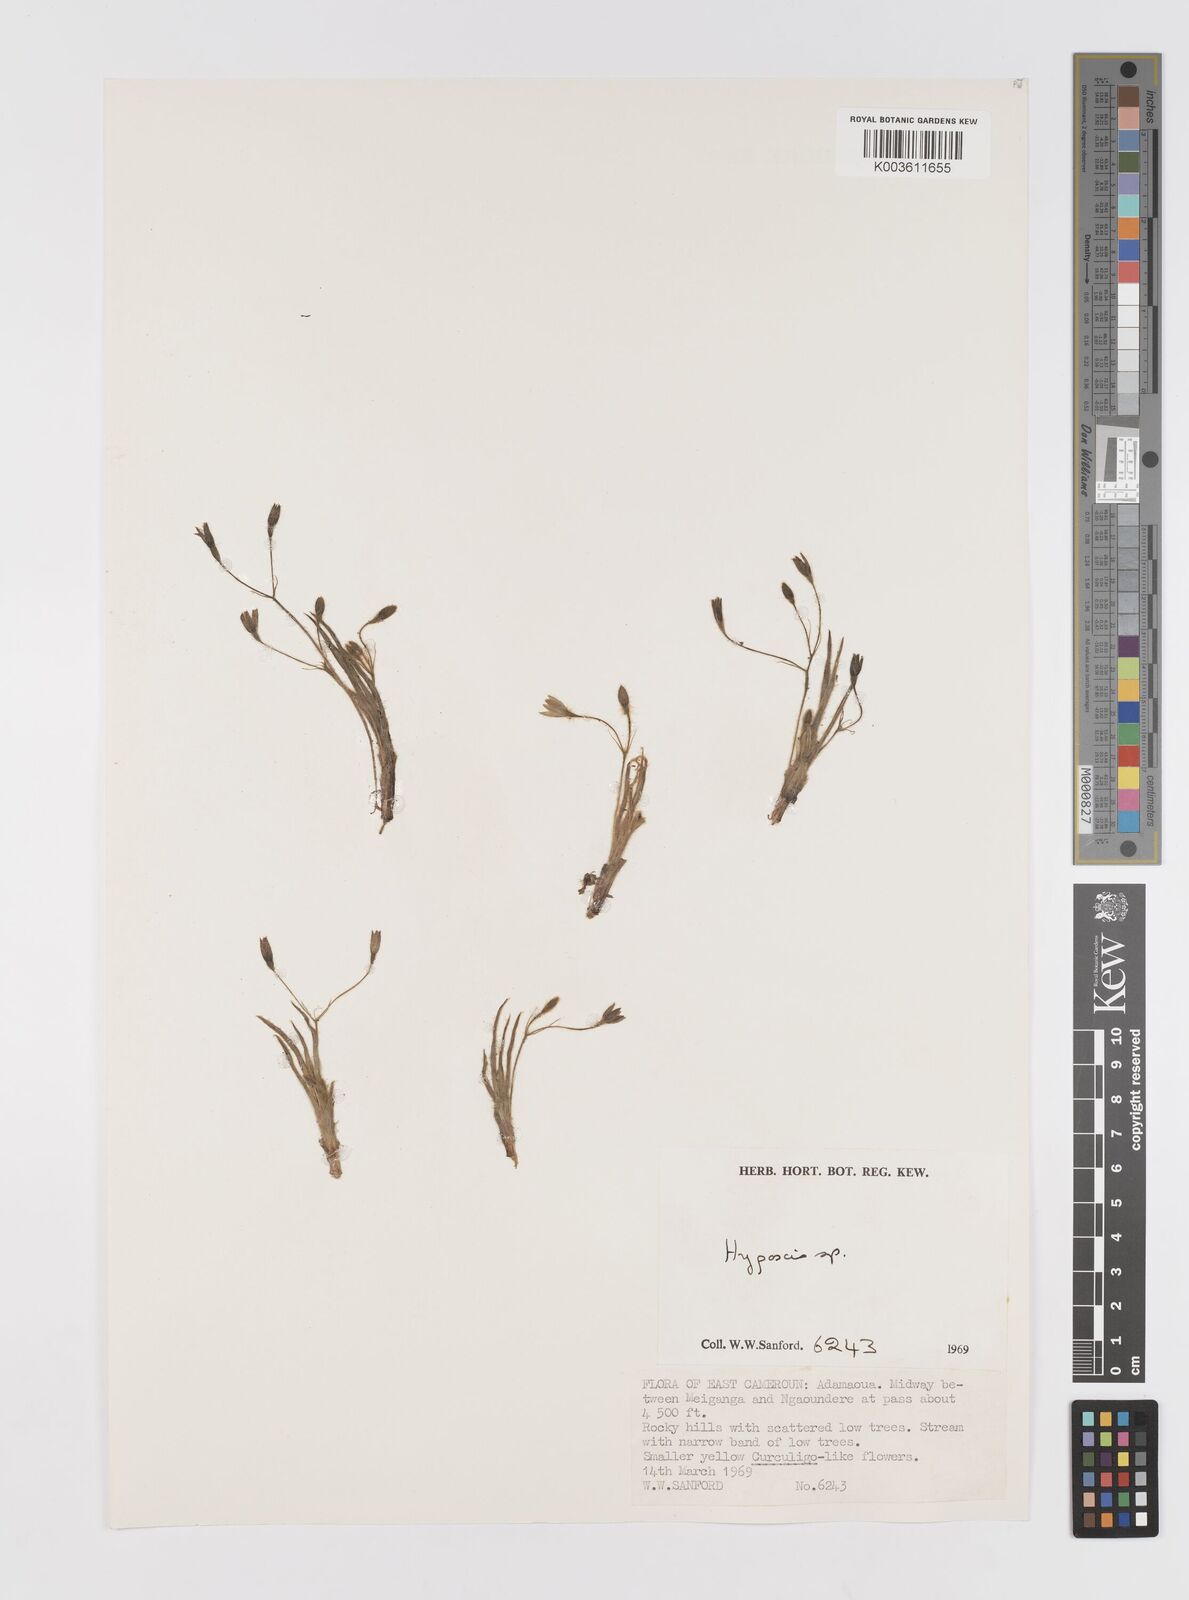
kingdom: Plantae
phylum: Tracheophyta
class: Liliopsida
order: Asparagales
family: Hypoxidaceae
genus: Hypoxis
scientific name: Hypoxis
